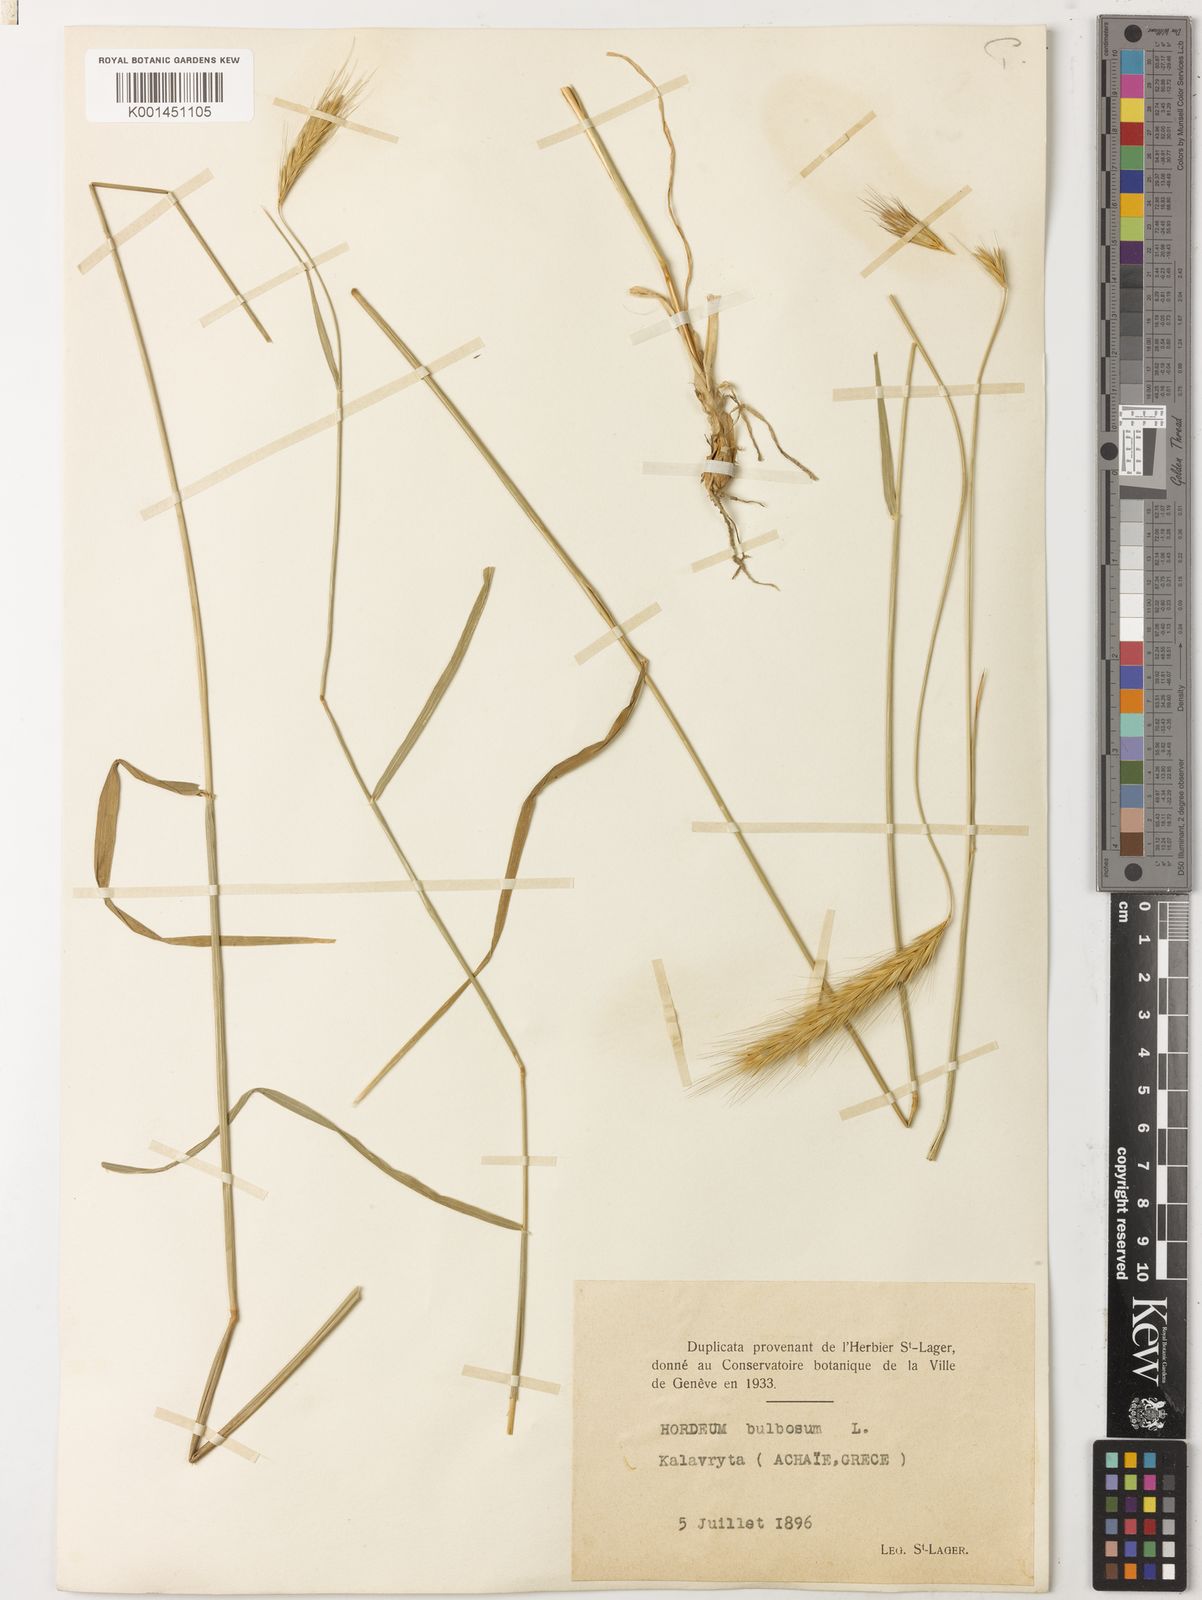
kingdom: Plantae
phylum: Tracheophyta
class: Liliopsida
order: Poales
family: Poaceae
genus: Hordeum
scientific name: Hordeum bulbosum
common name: Bulbous barley
